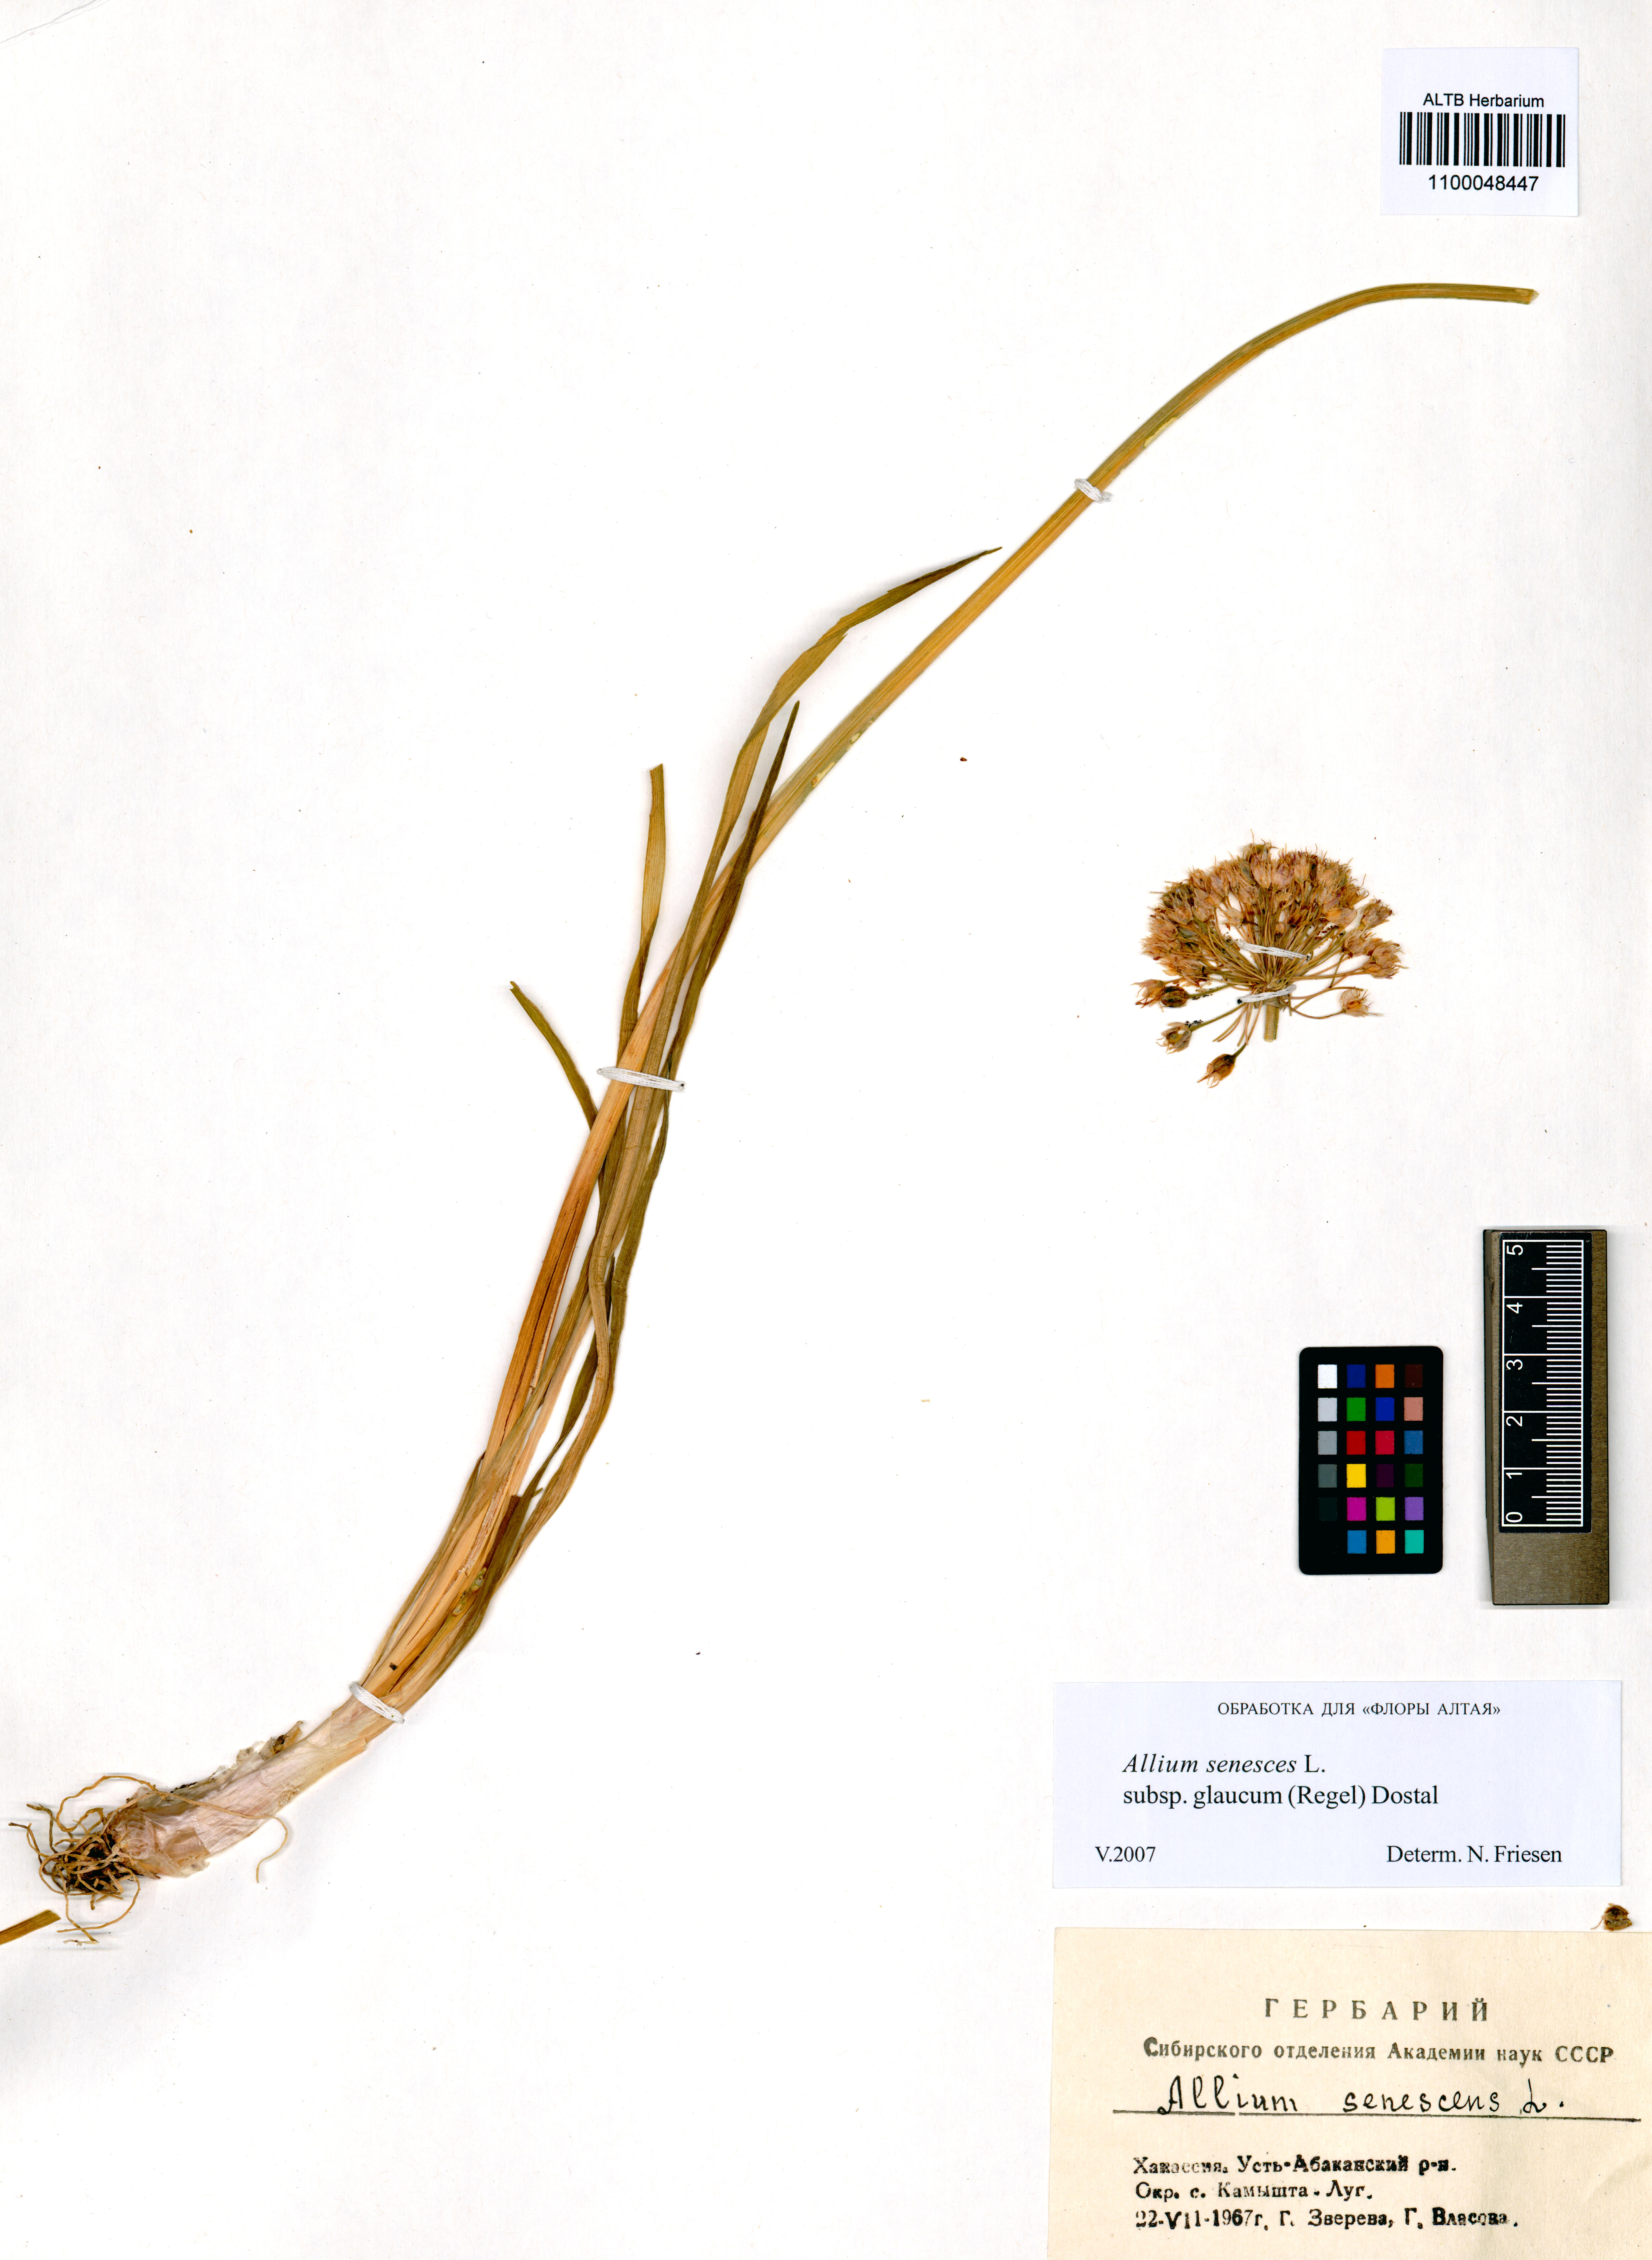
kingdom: Plantae
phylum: Tracheophyta
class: Liliopsida
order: Asparagales
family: Amaryllidaceae
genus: Allium
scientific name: Allium senescens
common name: German garlic
